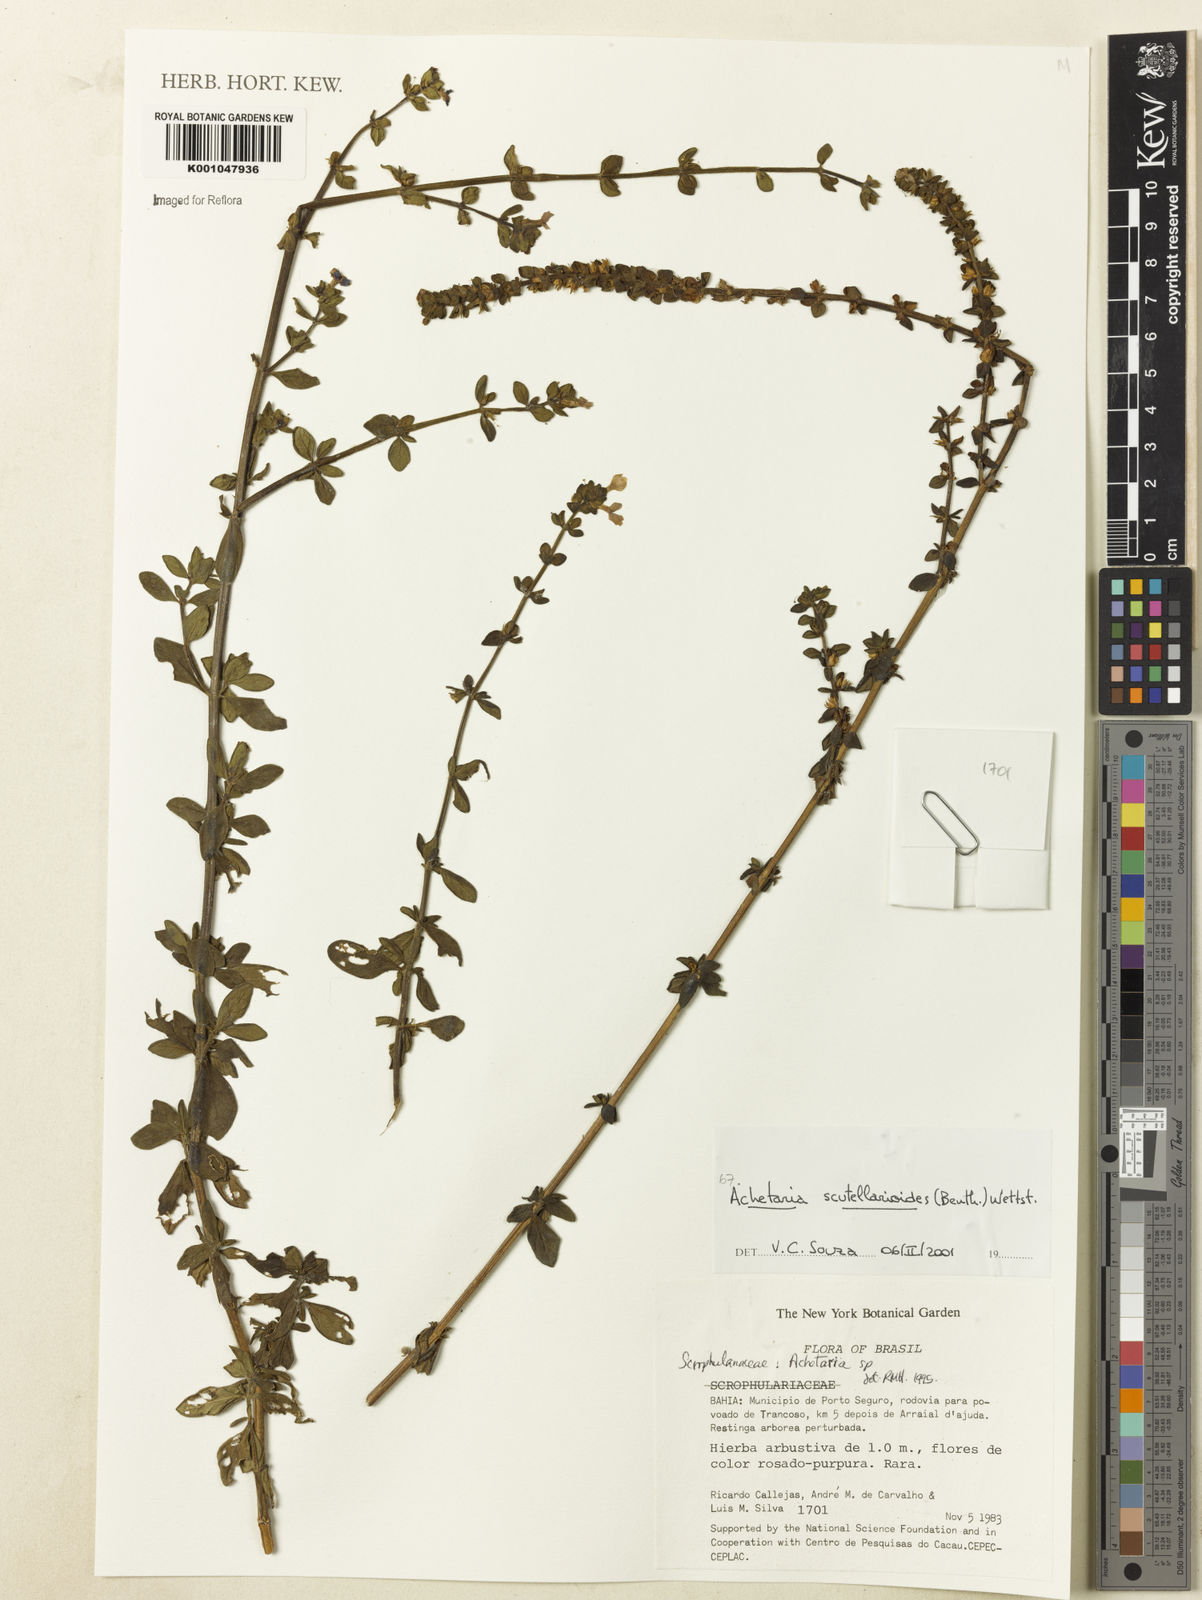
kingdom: Plantae
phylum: Tracheophyta
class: Magnoliopsida
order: Lamiales
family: Plantaginaceae
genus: Matourea
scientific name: Matourea scutellarioides
